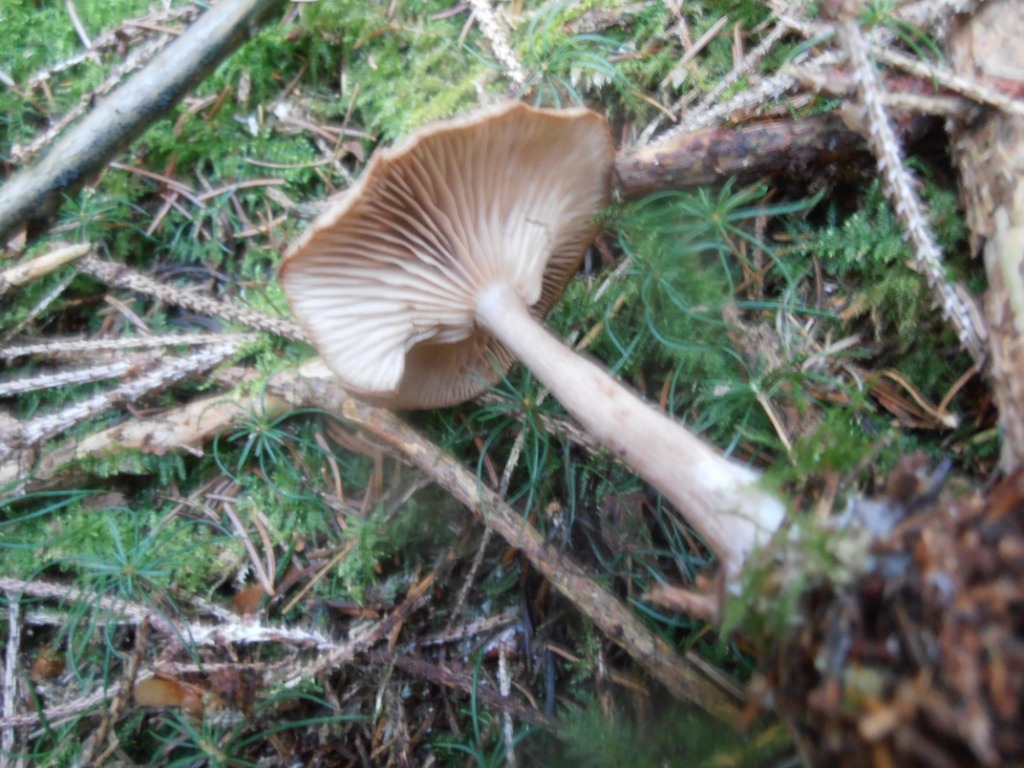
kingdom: Fungi
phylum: Basidiomycota
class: Agaricomycetes
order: Agaricales
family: Pseudoclitocybaceae
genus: Pseudoclitocybe
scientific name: Pseudoclitocybe cyathiformis
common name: almindelig bægertragthat
